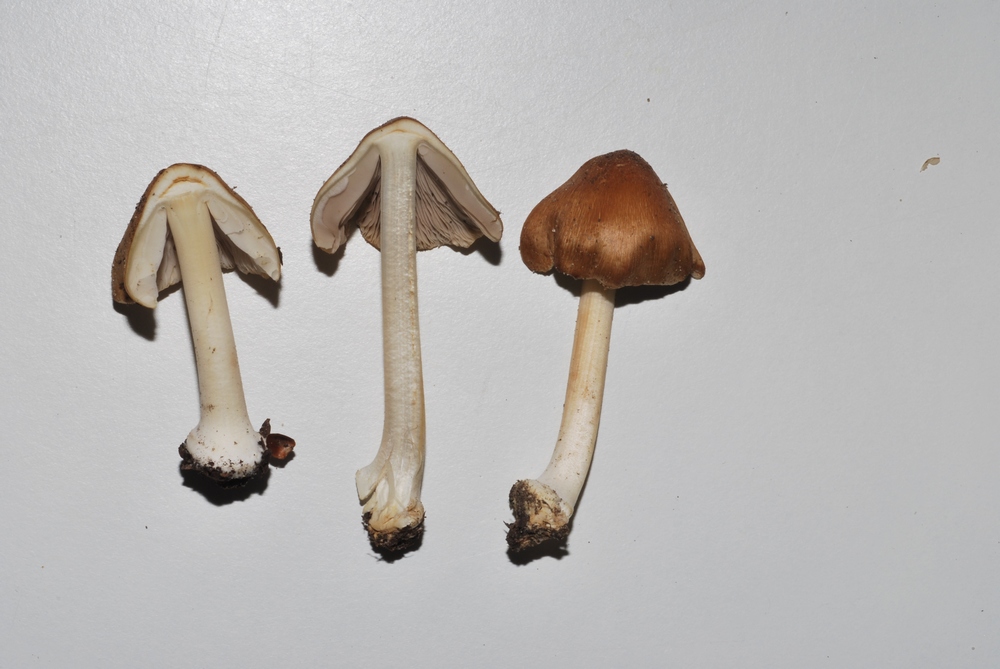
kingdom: Fungi
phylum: Basidiomycota
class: Agaricomycetes
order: Agaricales
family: Inocybaceae
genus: Inocybe
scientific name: Inocybe mixtilis
